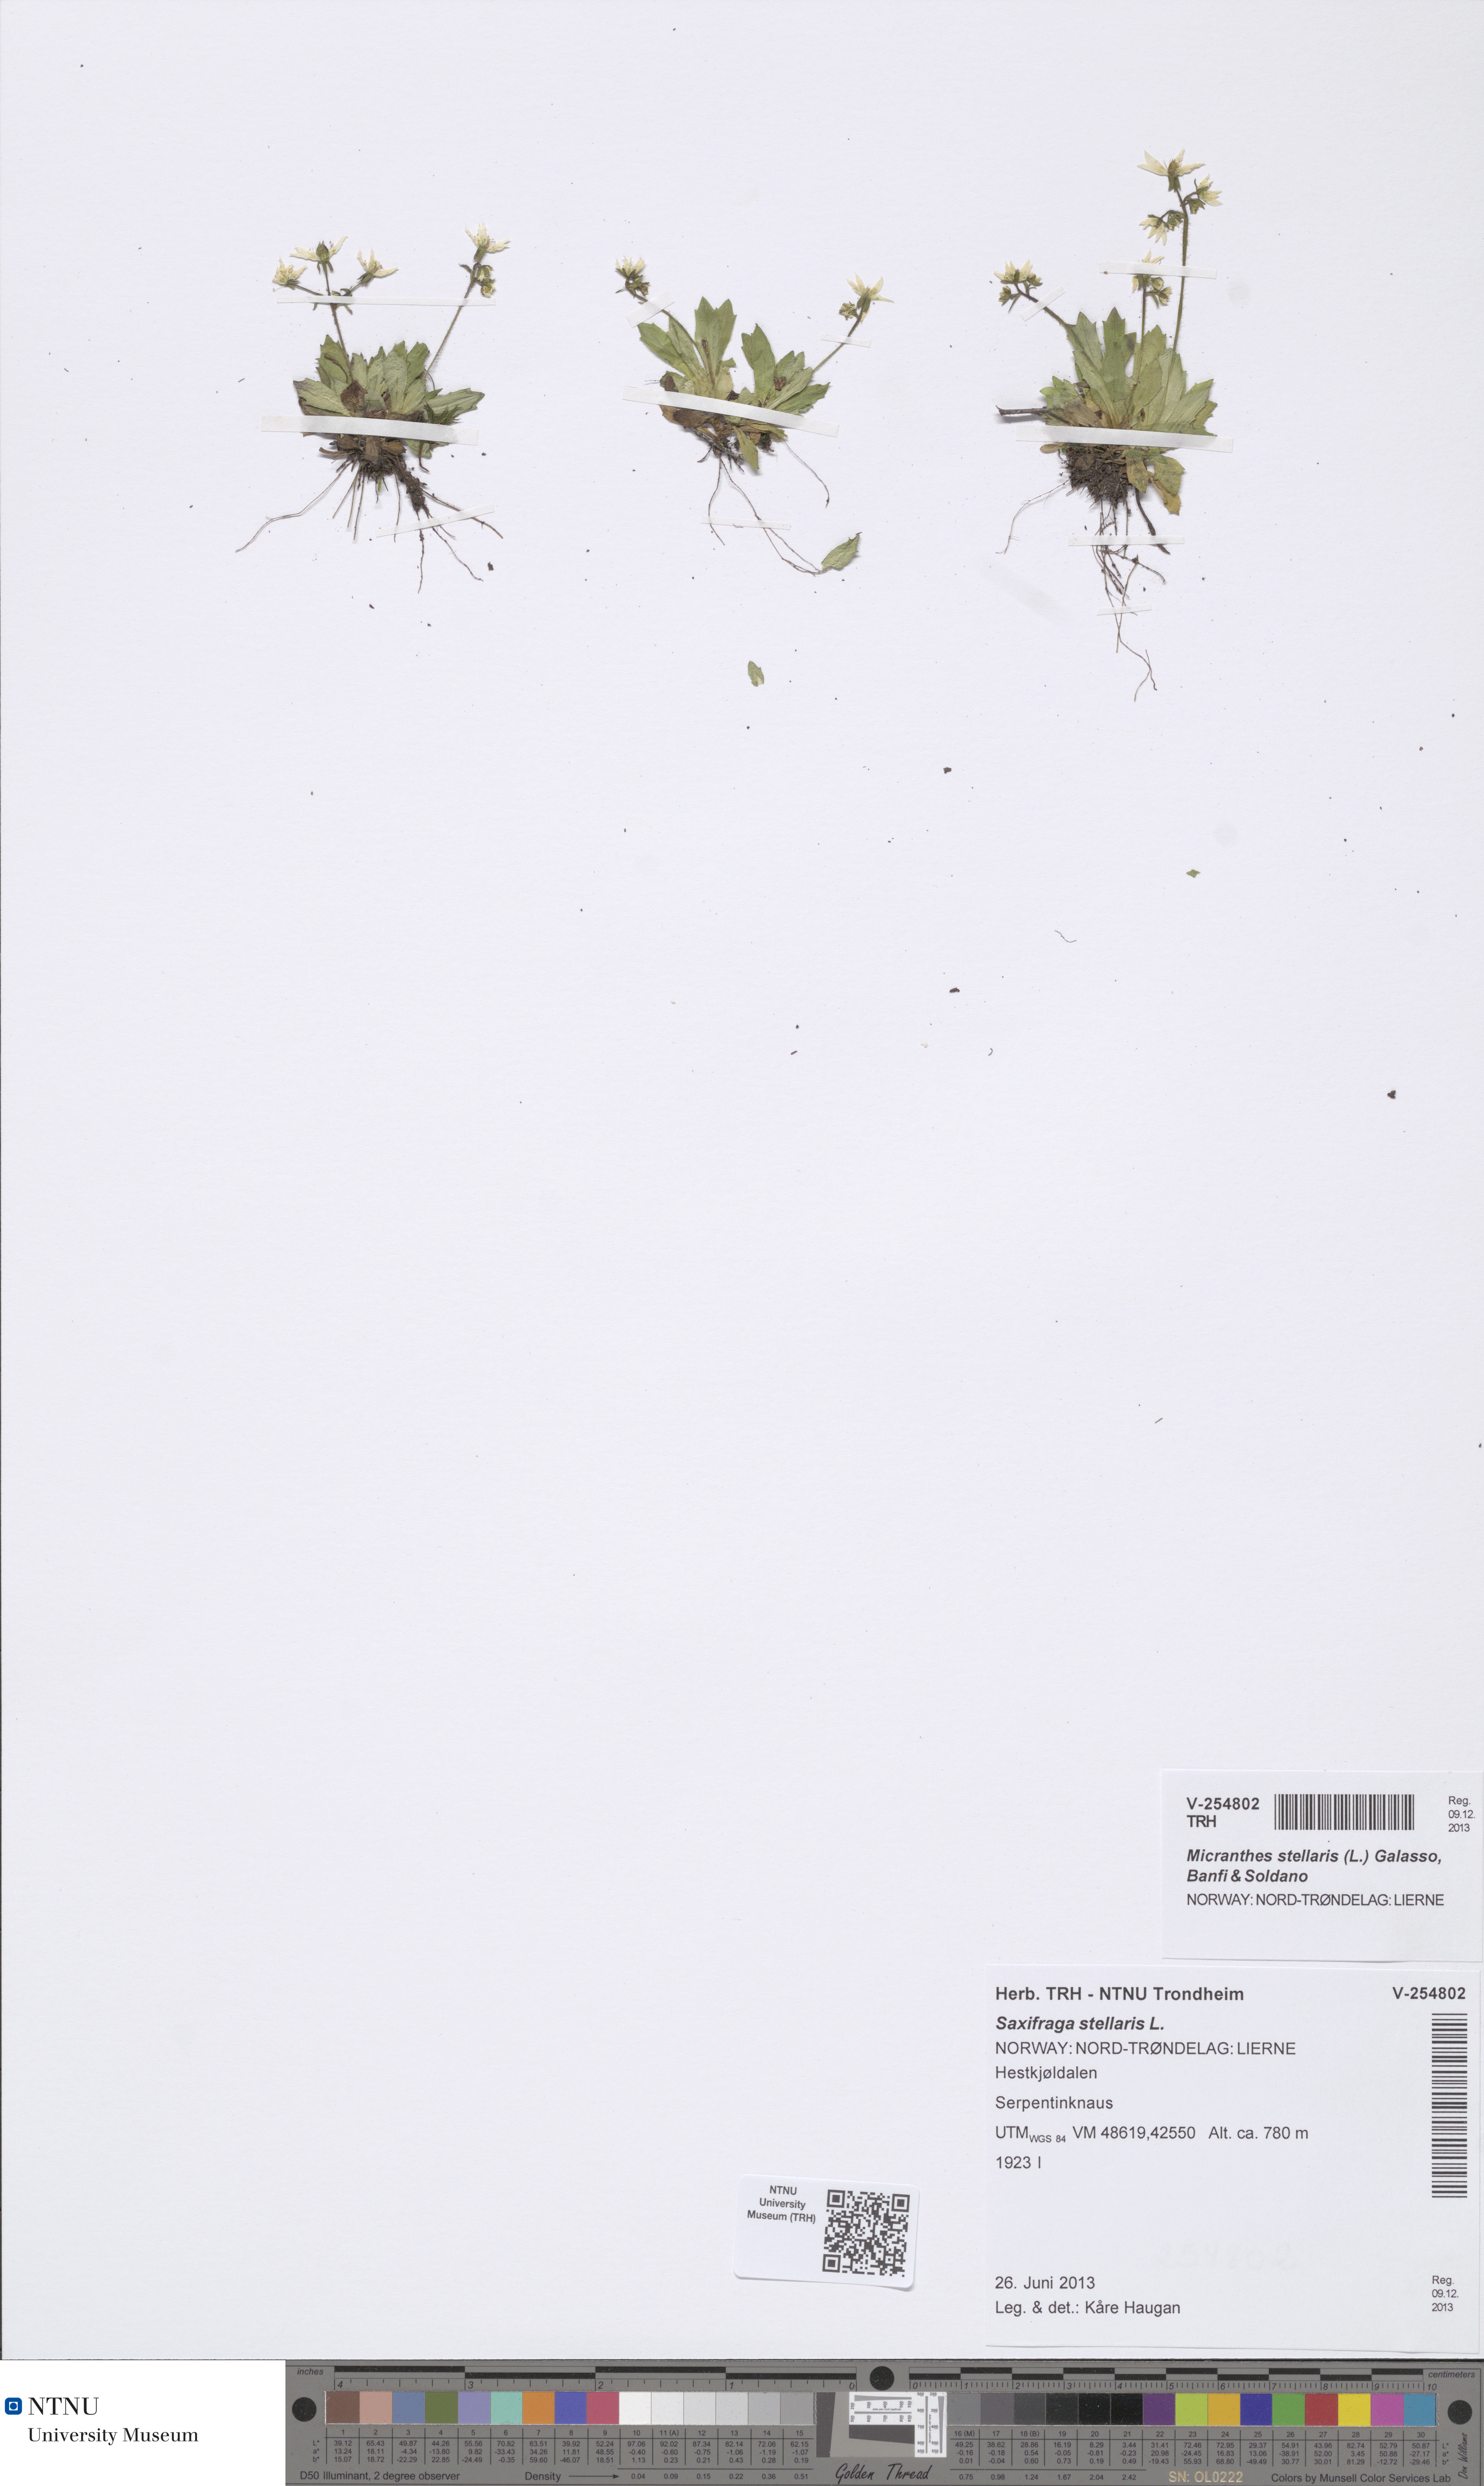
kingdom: Plantae
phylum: Tracheophyta
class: Magnoliopsida
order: Saxifragales
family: Saxifragaceae
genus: Micranthes
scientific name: Micranthes stellaris
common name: Starry saxifrage
